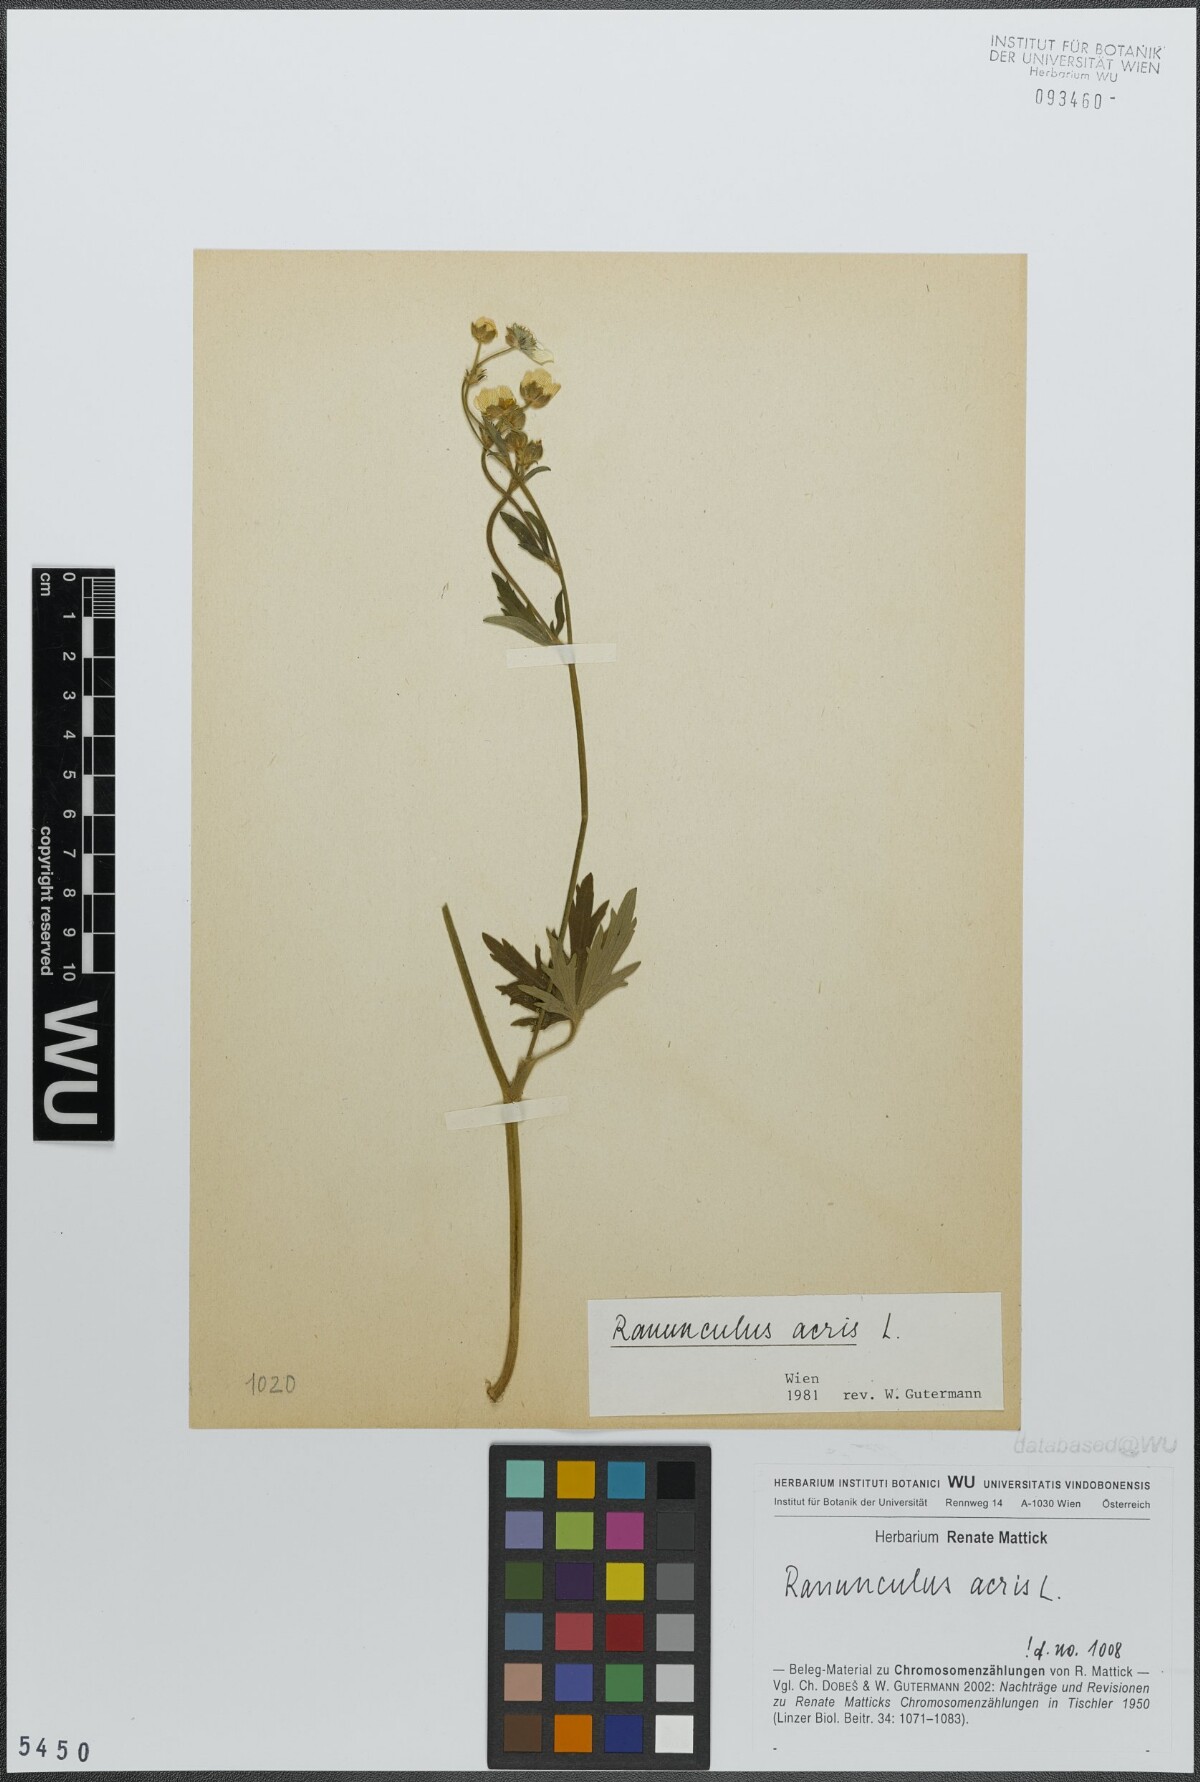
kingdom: Plantae
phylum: Tracheophyta
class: Magnoliopsida
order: Ranunculales
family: Ranunculaceae
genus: Ranunculus
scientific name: Ranunculus acris
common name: Meadow buttercup
